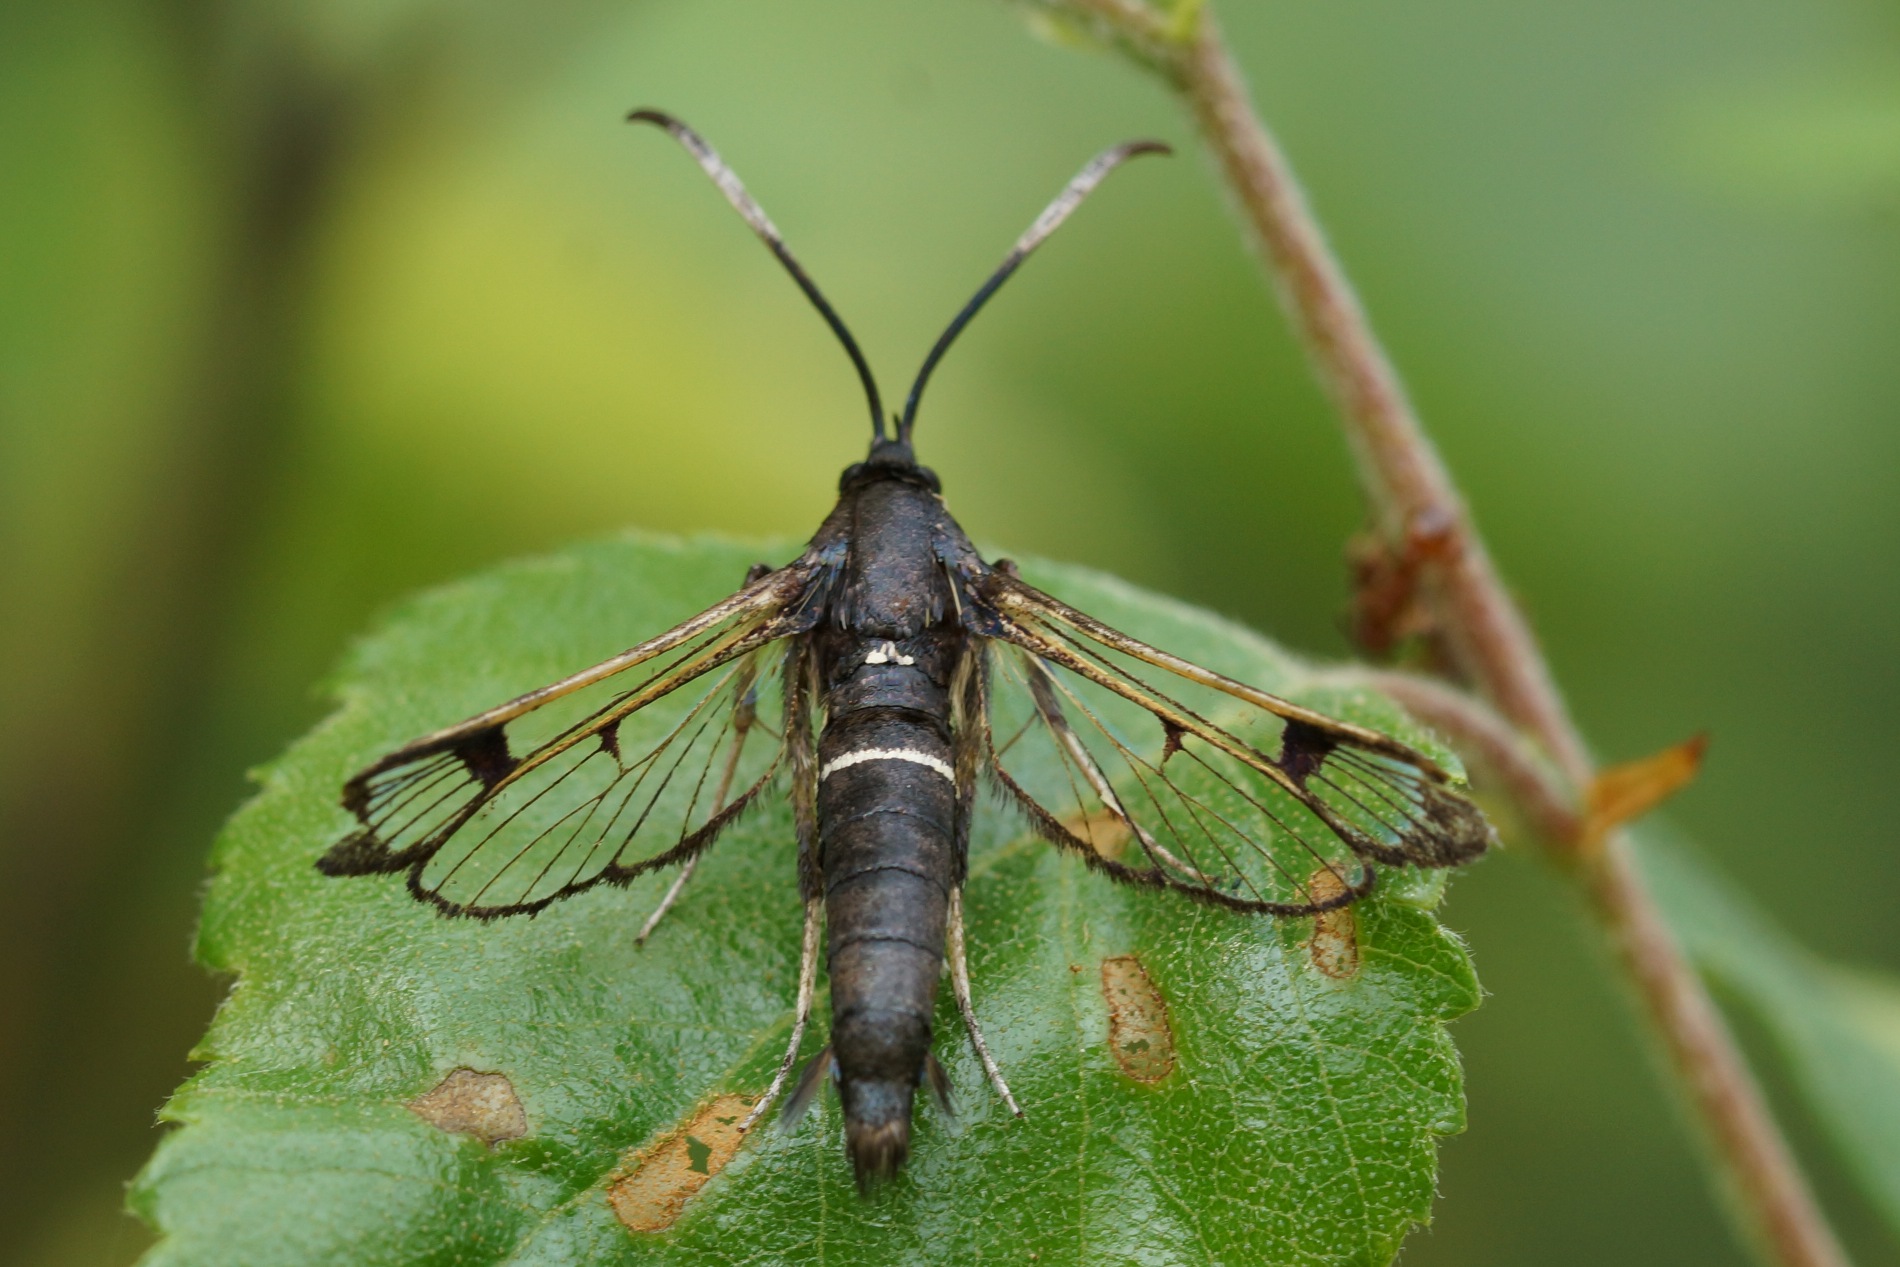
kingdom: Animalia
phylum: Arthropoda
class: Insecta
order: Lepidoptera
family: Sesiidae
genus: Synanthedon
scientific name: Synanthedon spheciformis
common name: Elleglassværmer
